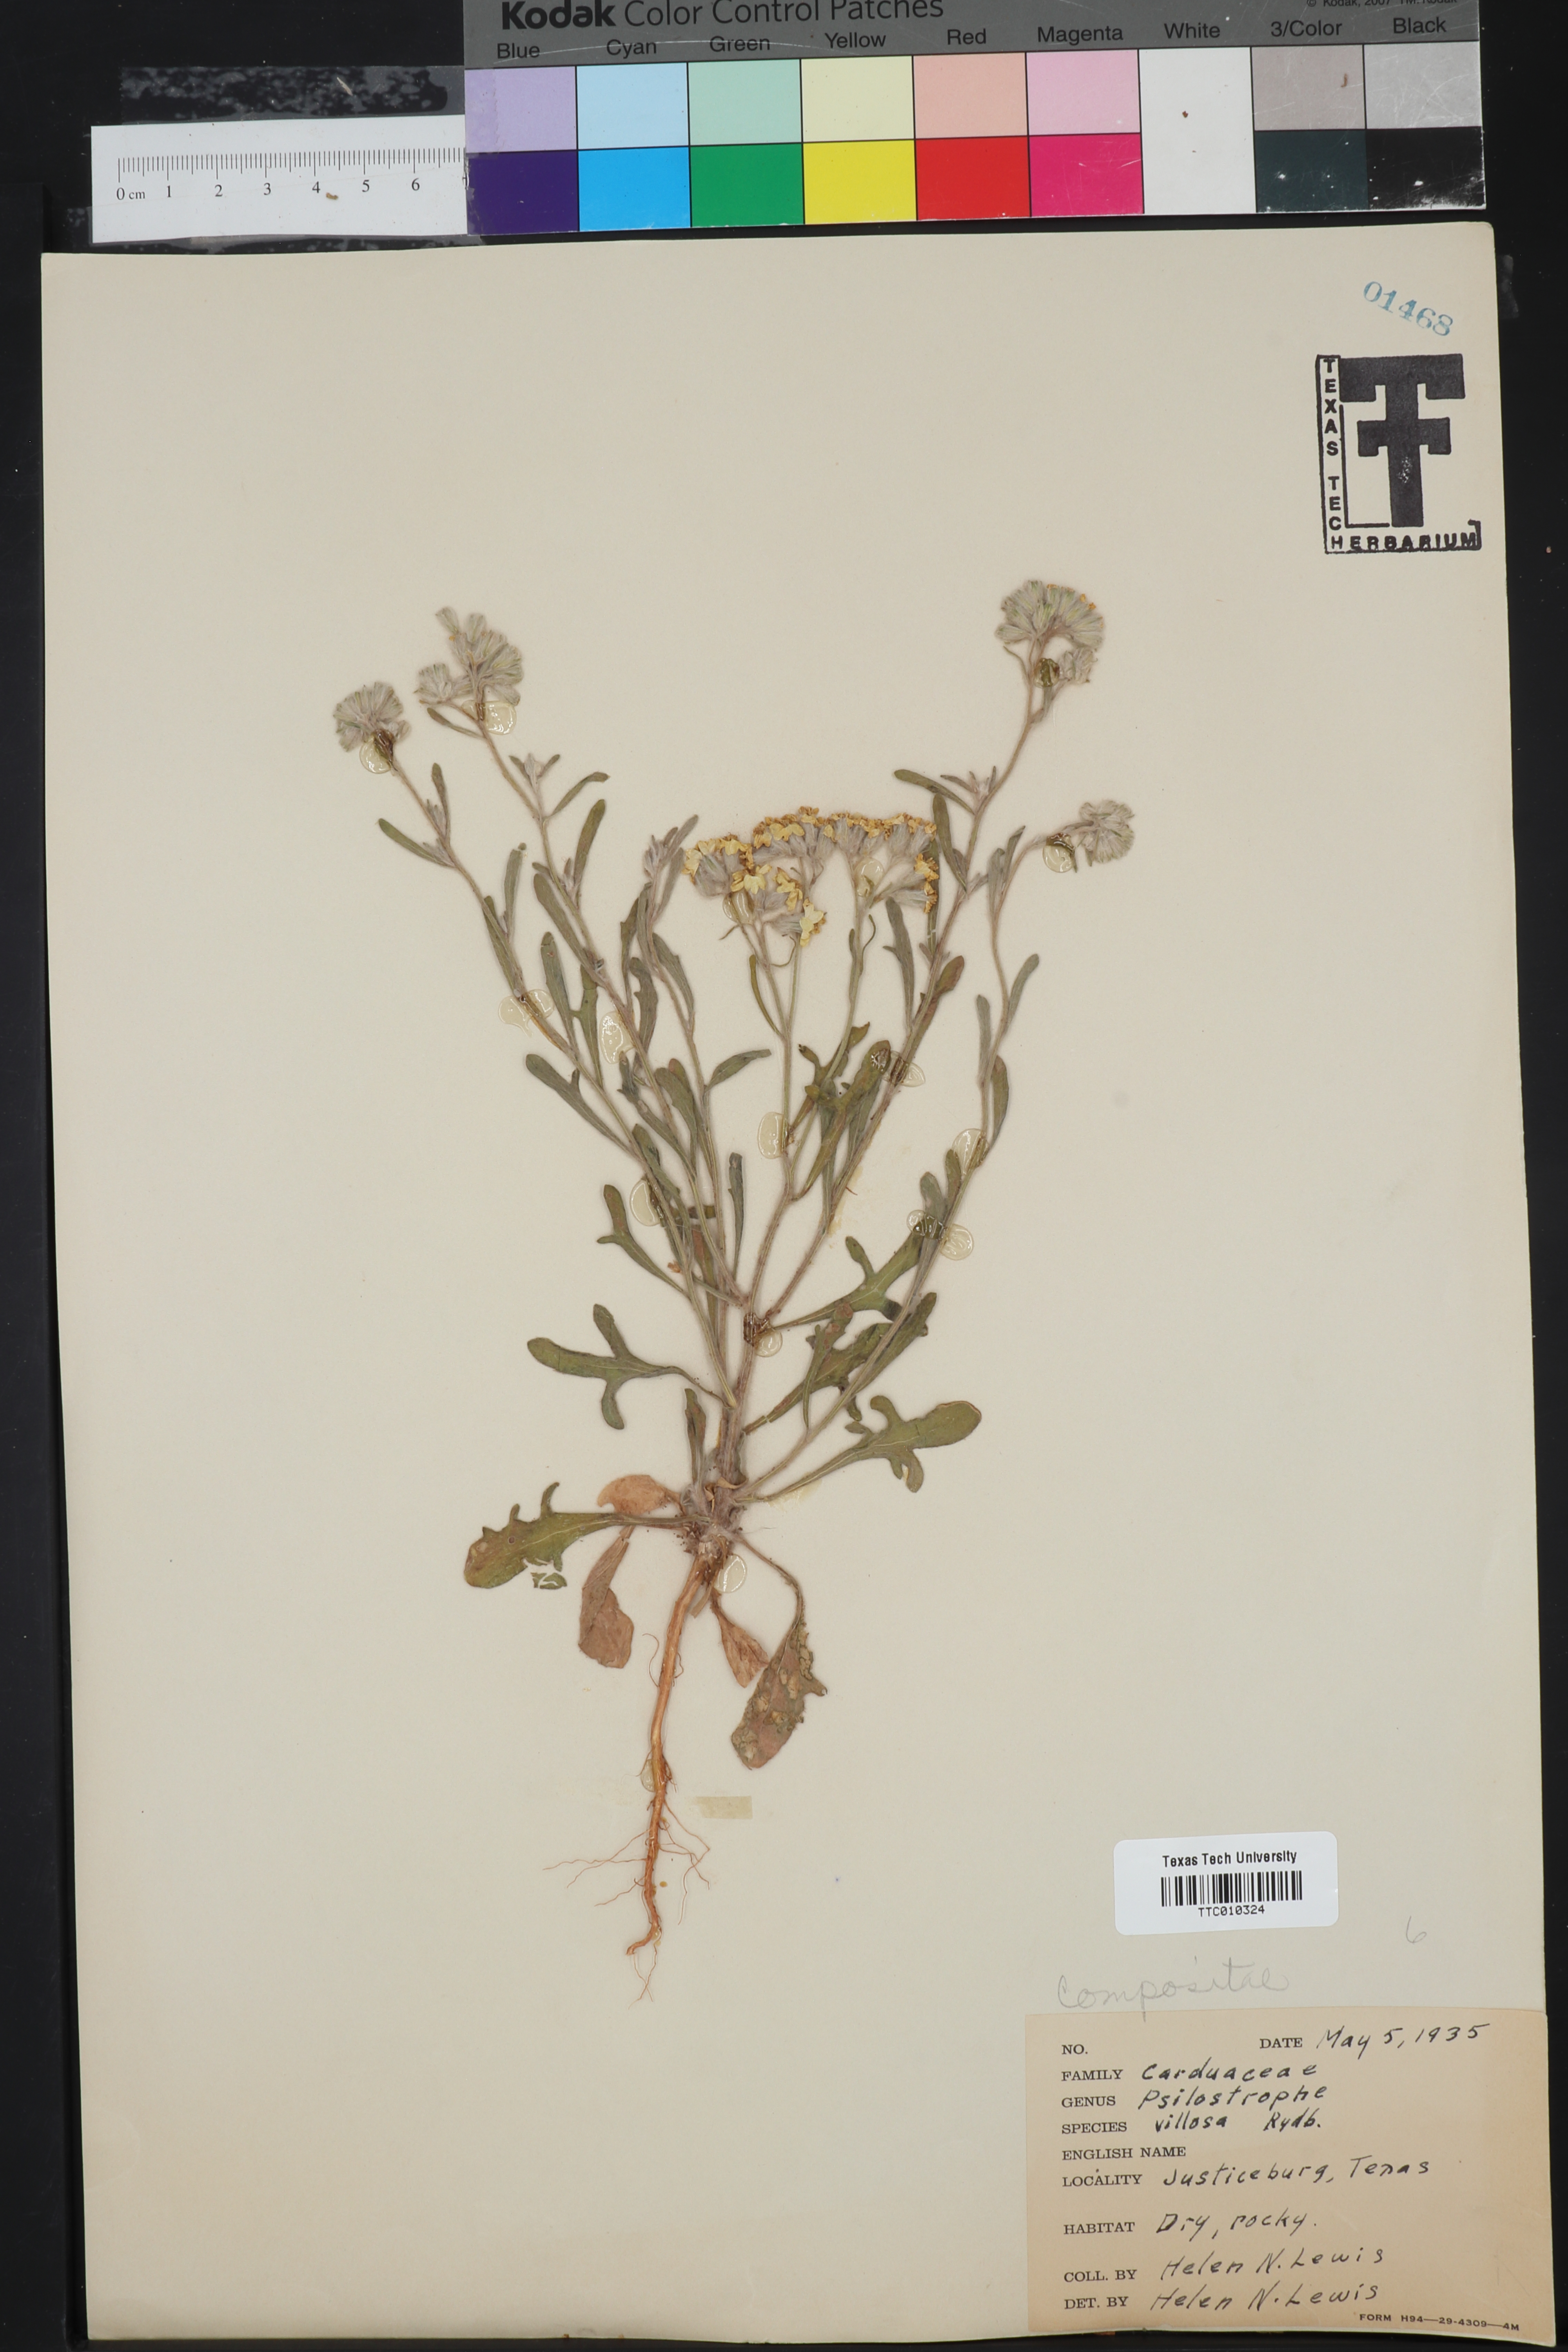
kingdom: Plantae
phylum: Tracheophyta
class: Magnoliopsida
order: Asterales
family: Asteraceae
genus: Psilostrophe
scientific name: Psilostrophe villosa
